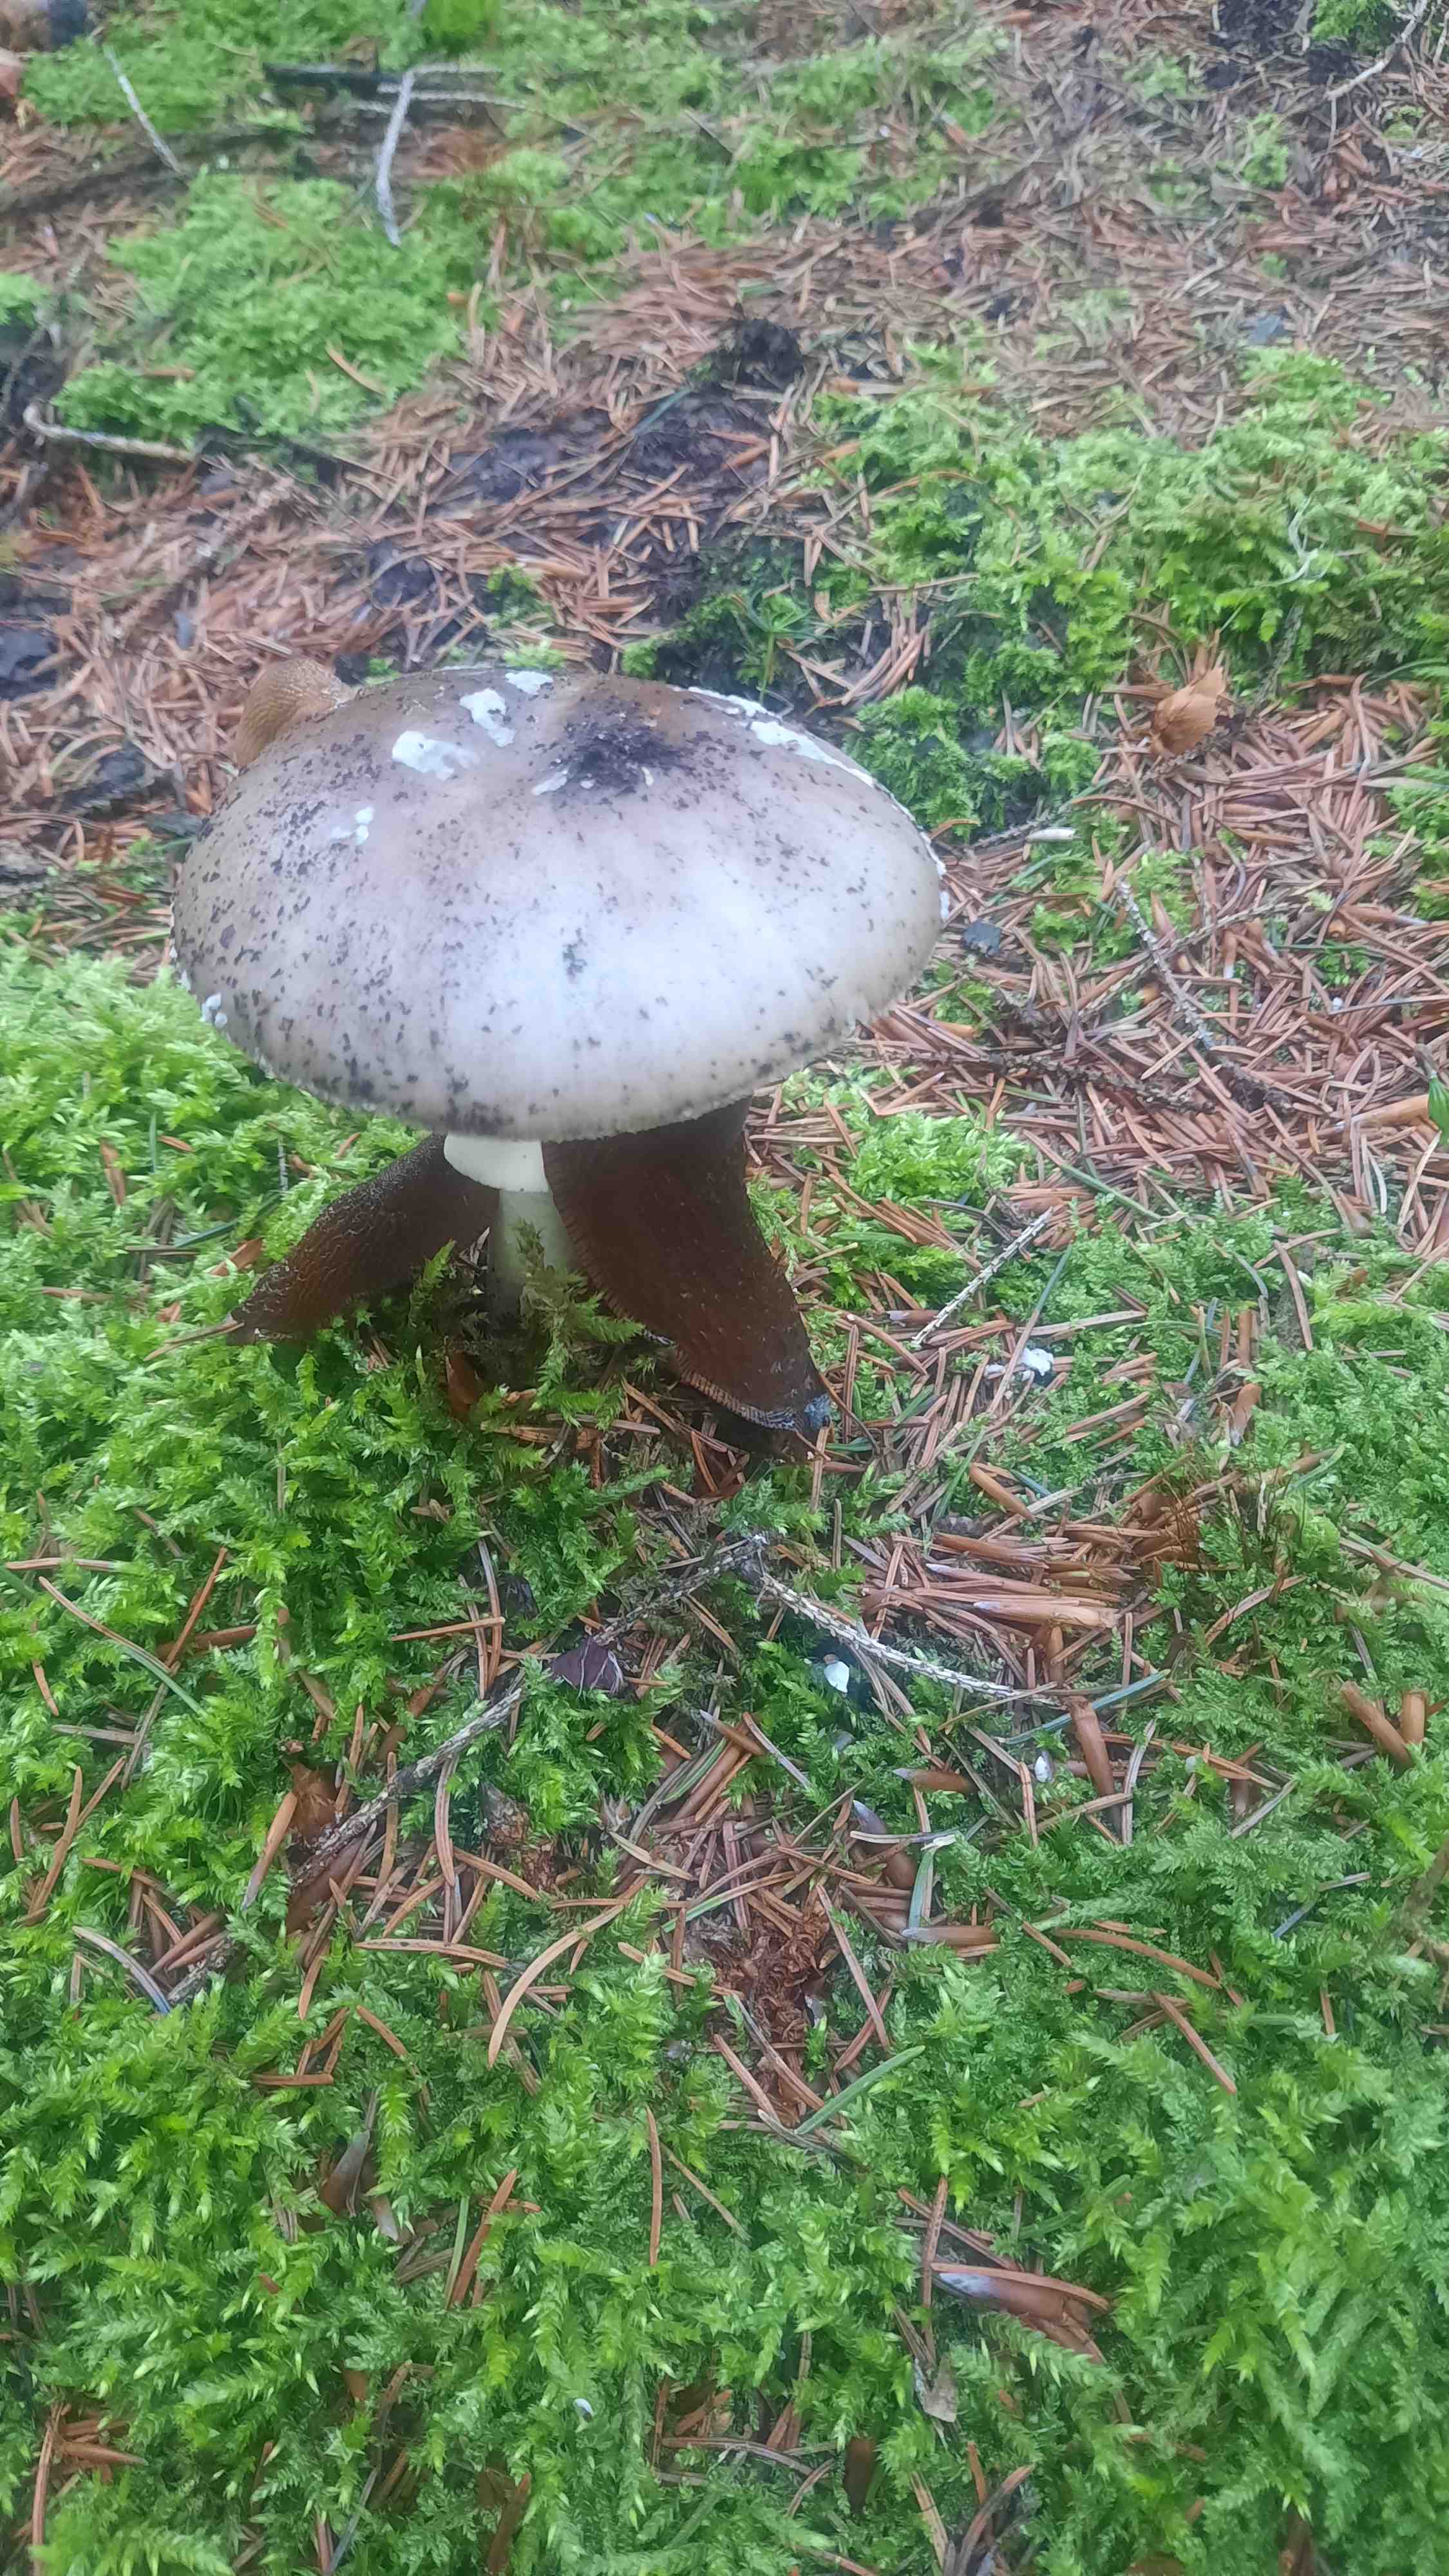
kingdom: Fungi
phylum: Basidiomycota
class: Agaricomycetes
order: Agaricales
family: Amanitaceae
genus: Amanita
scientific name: Amanita
